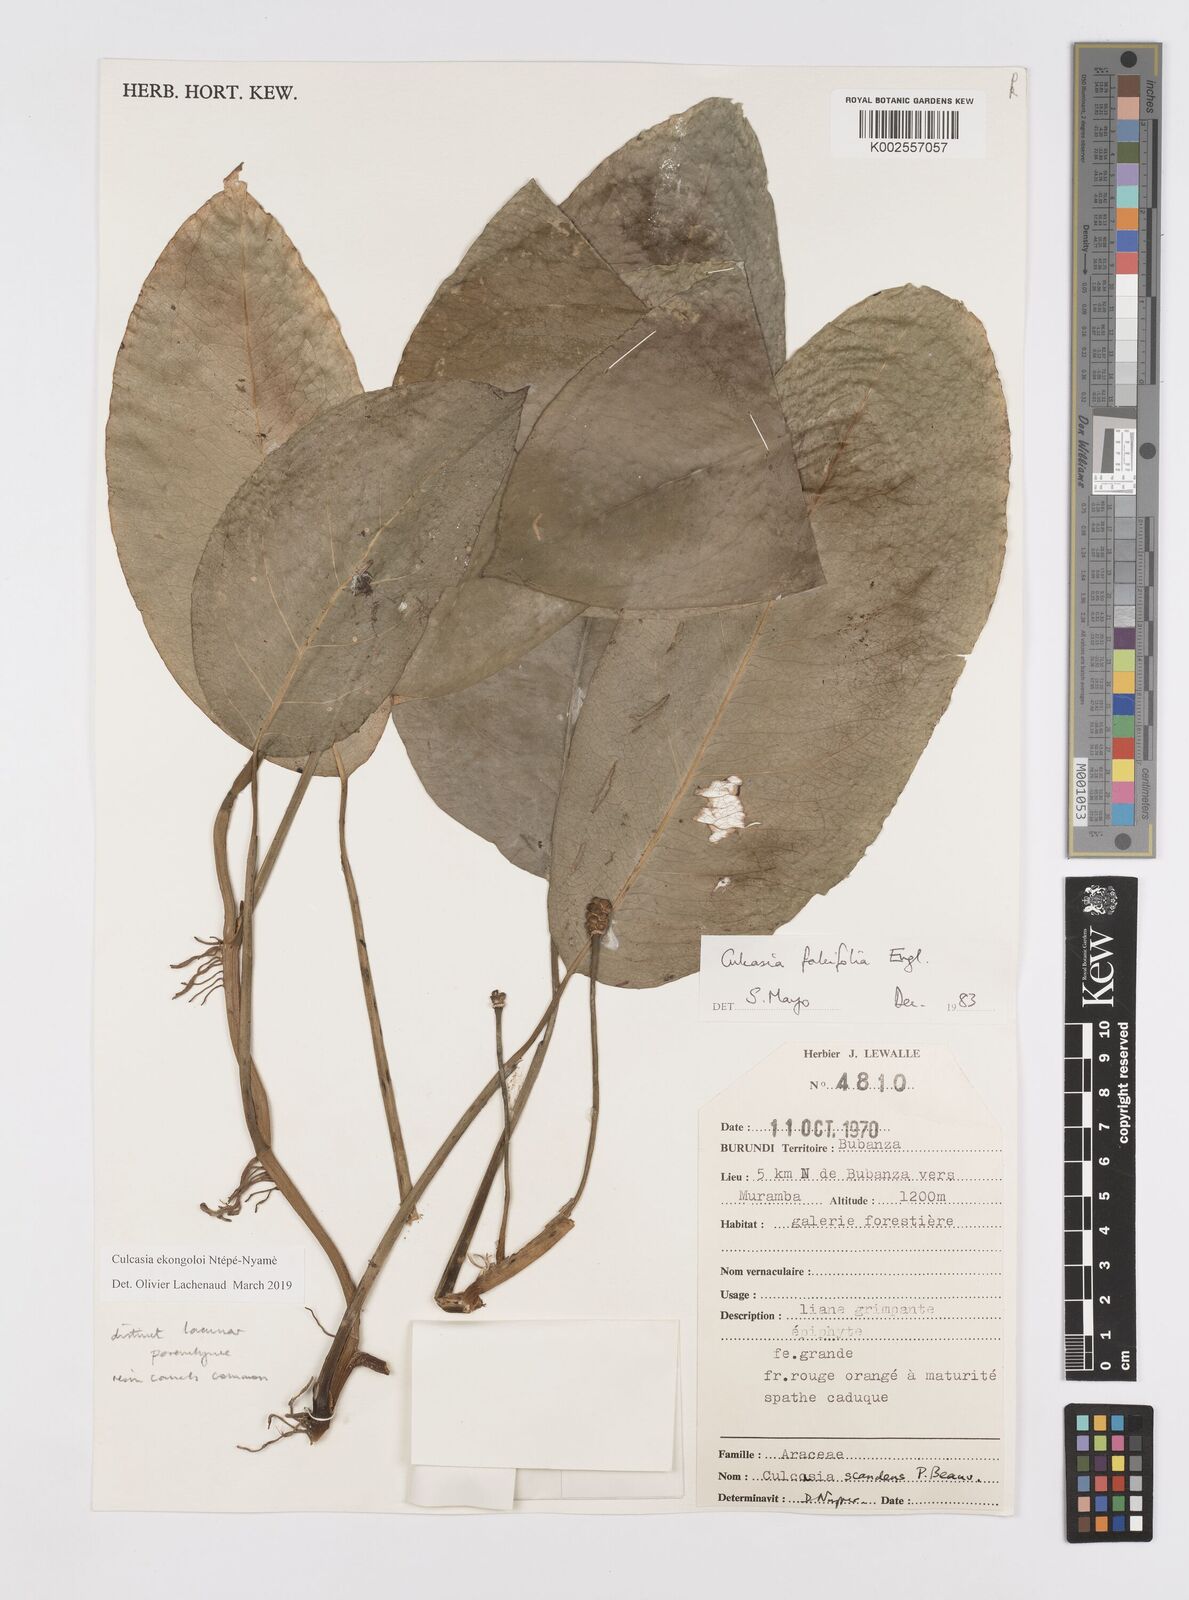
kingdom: Plantae
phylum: Tracheophyta
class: Liliopsida
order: Alismatales
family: Araceae
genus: Culcasia
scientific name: Culcasia ekongoloi
